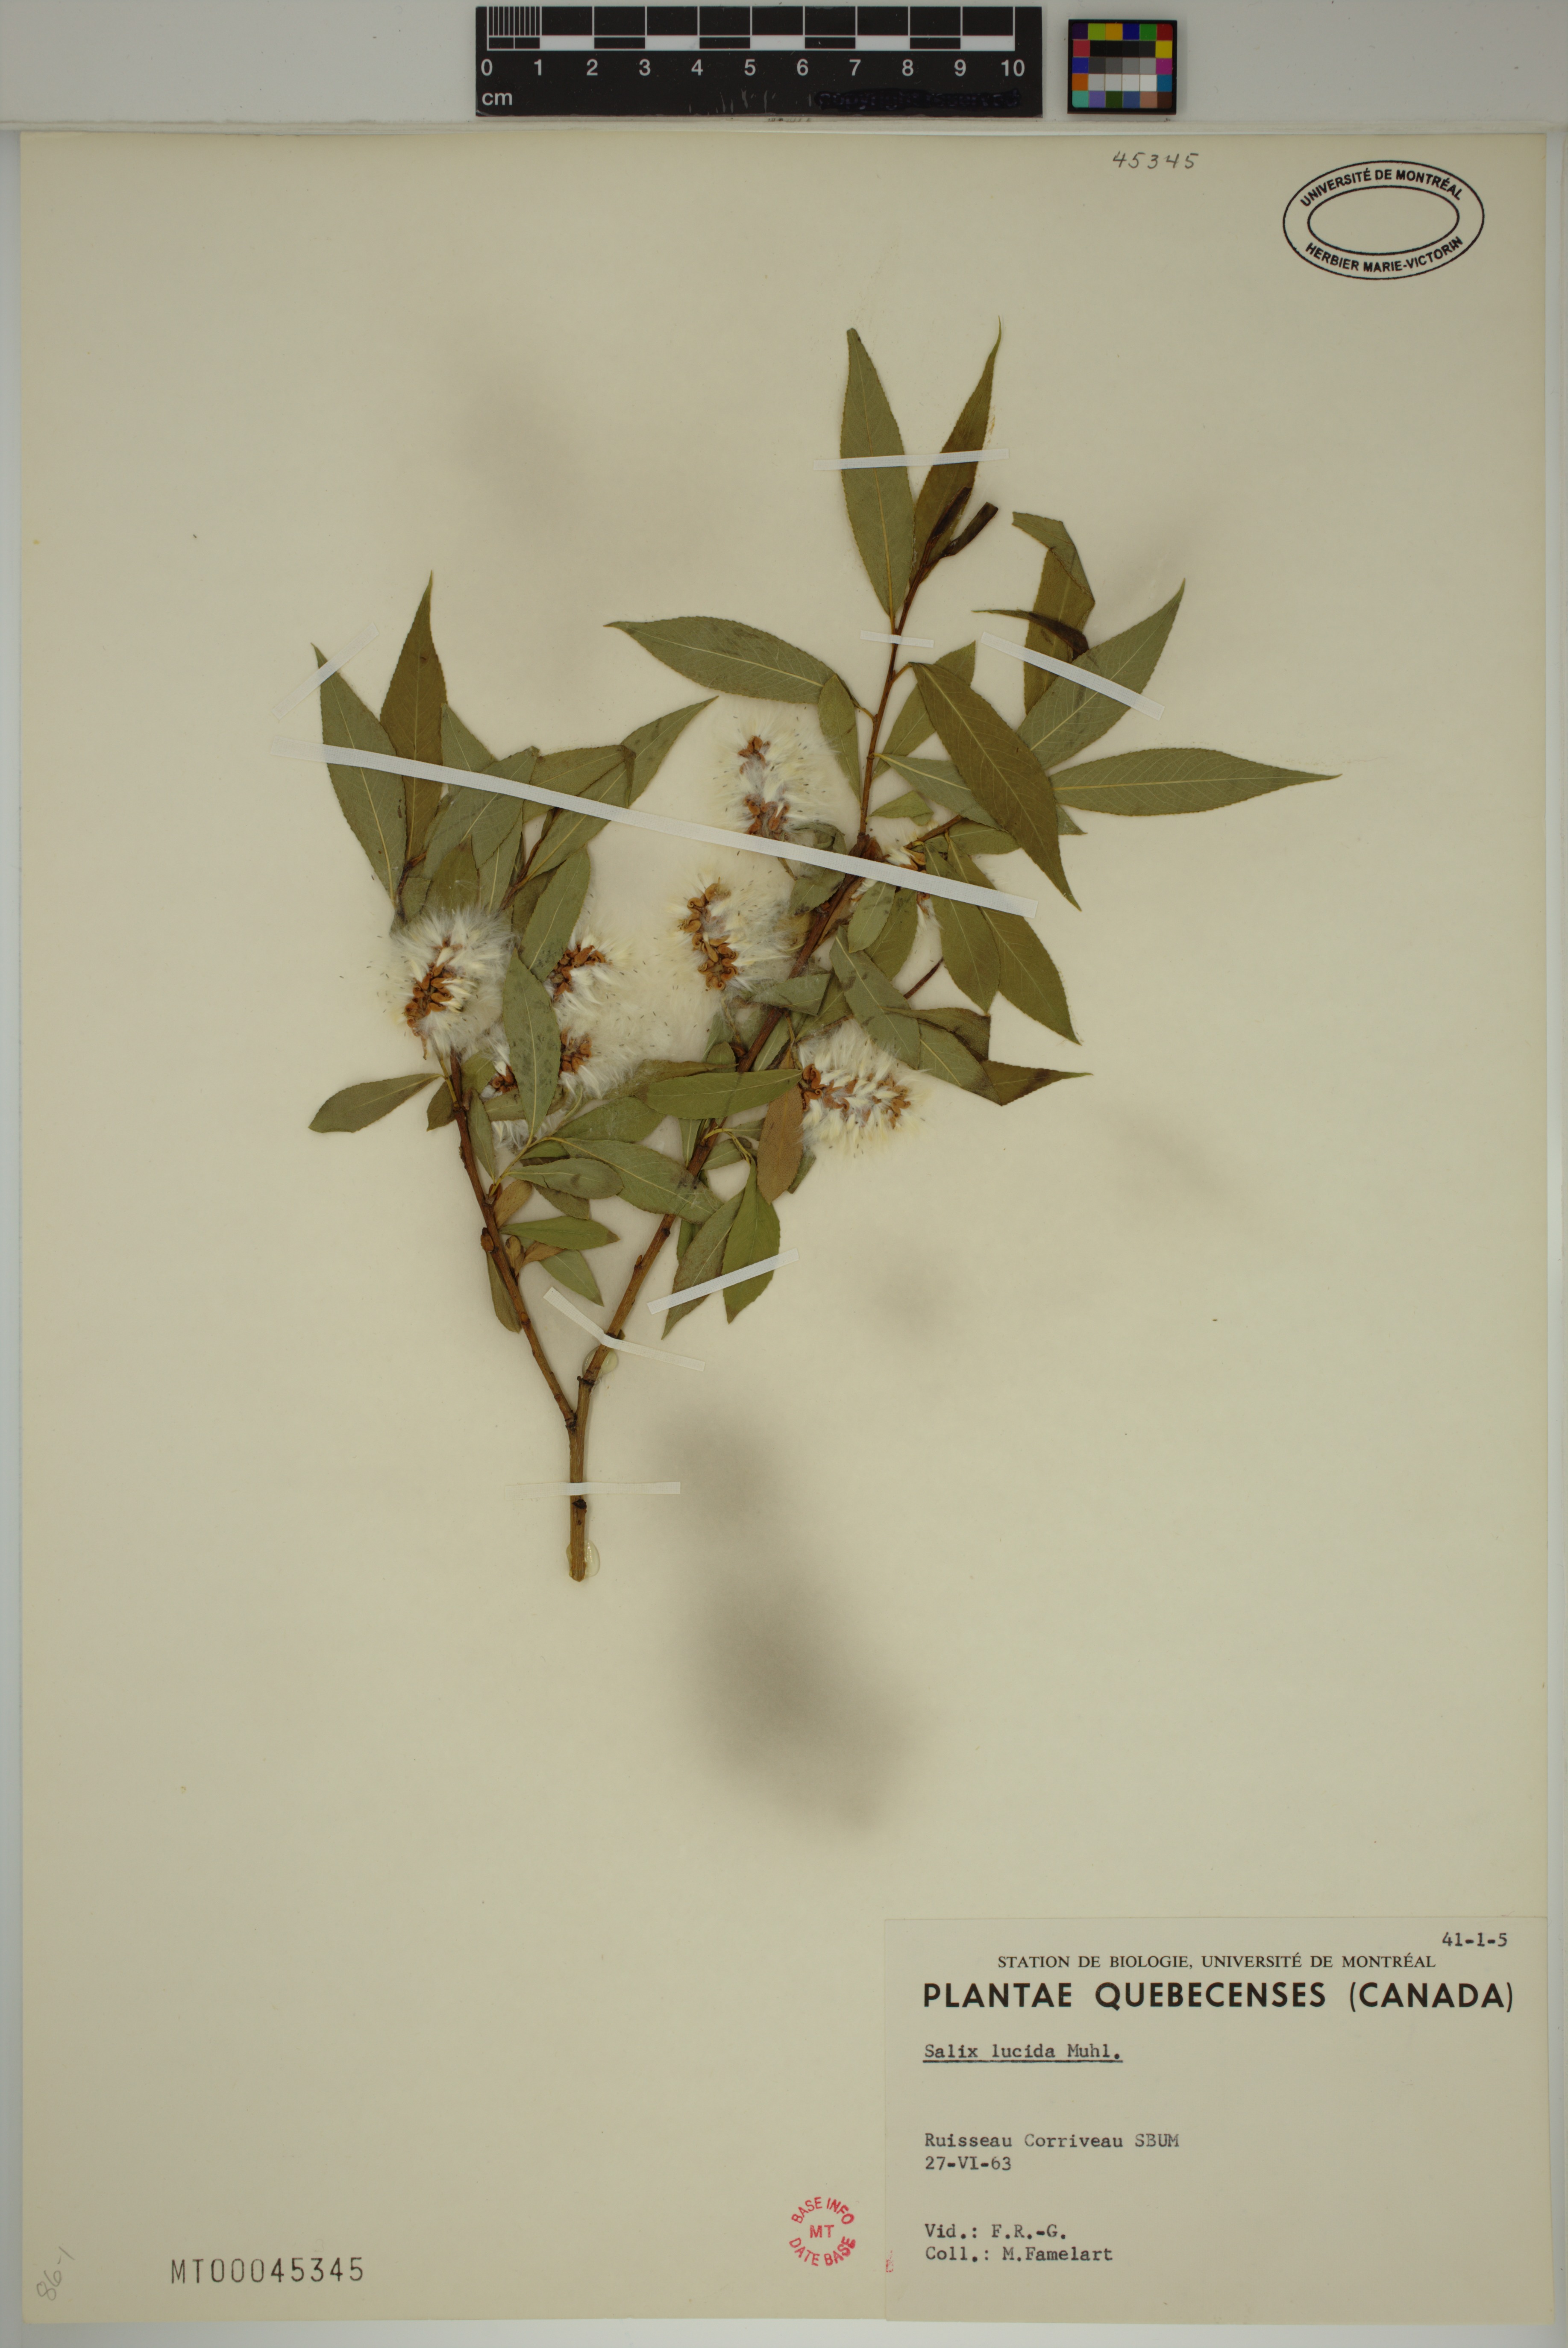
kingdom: Plantae
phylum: Tracheophyta
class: Magnoliopsida
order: Malpighiales
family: Salicaceae
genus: Salix
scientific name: Salix lucida
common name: Shining willow
